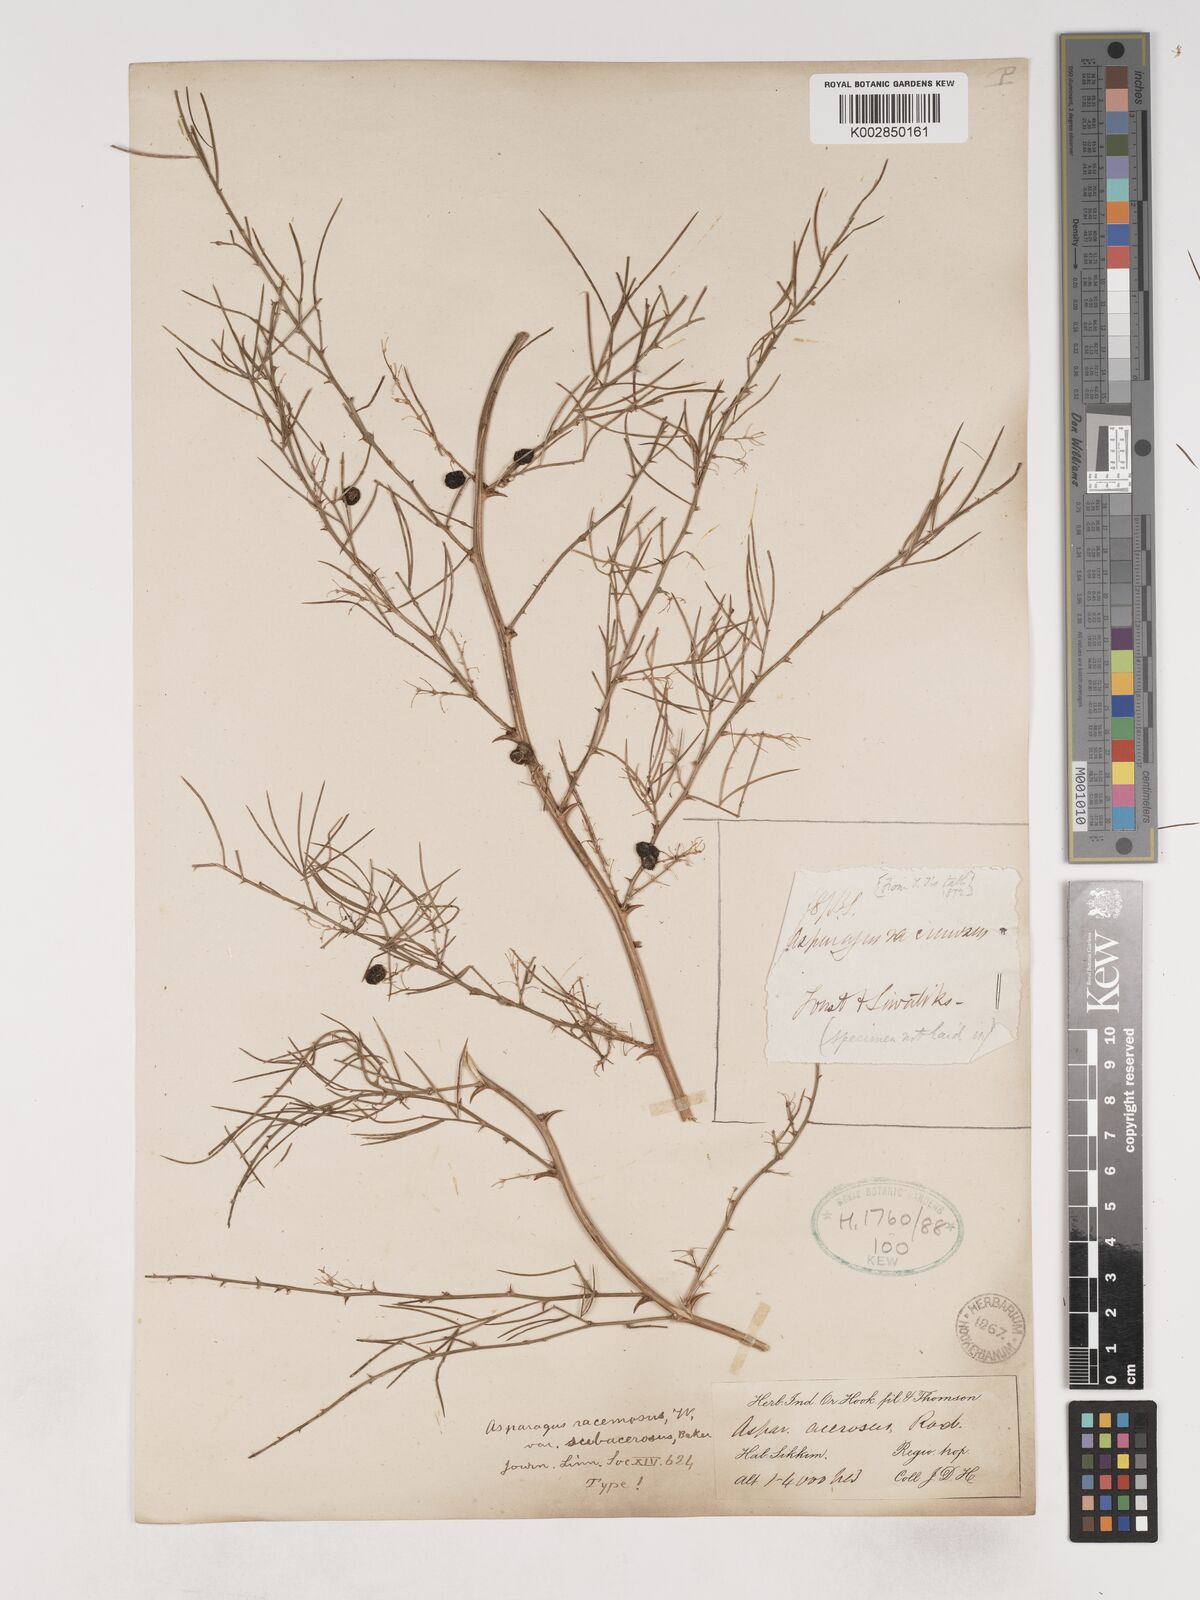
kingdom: Plantae
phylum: Tracheophyta
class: Liliopsida
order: Asparagales
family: Asparagaceae
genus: Asparagus
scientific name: Asparagus racemosus
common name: Asparagus-fern
